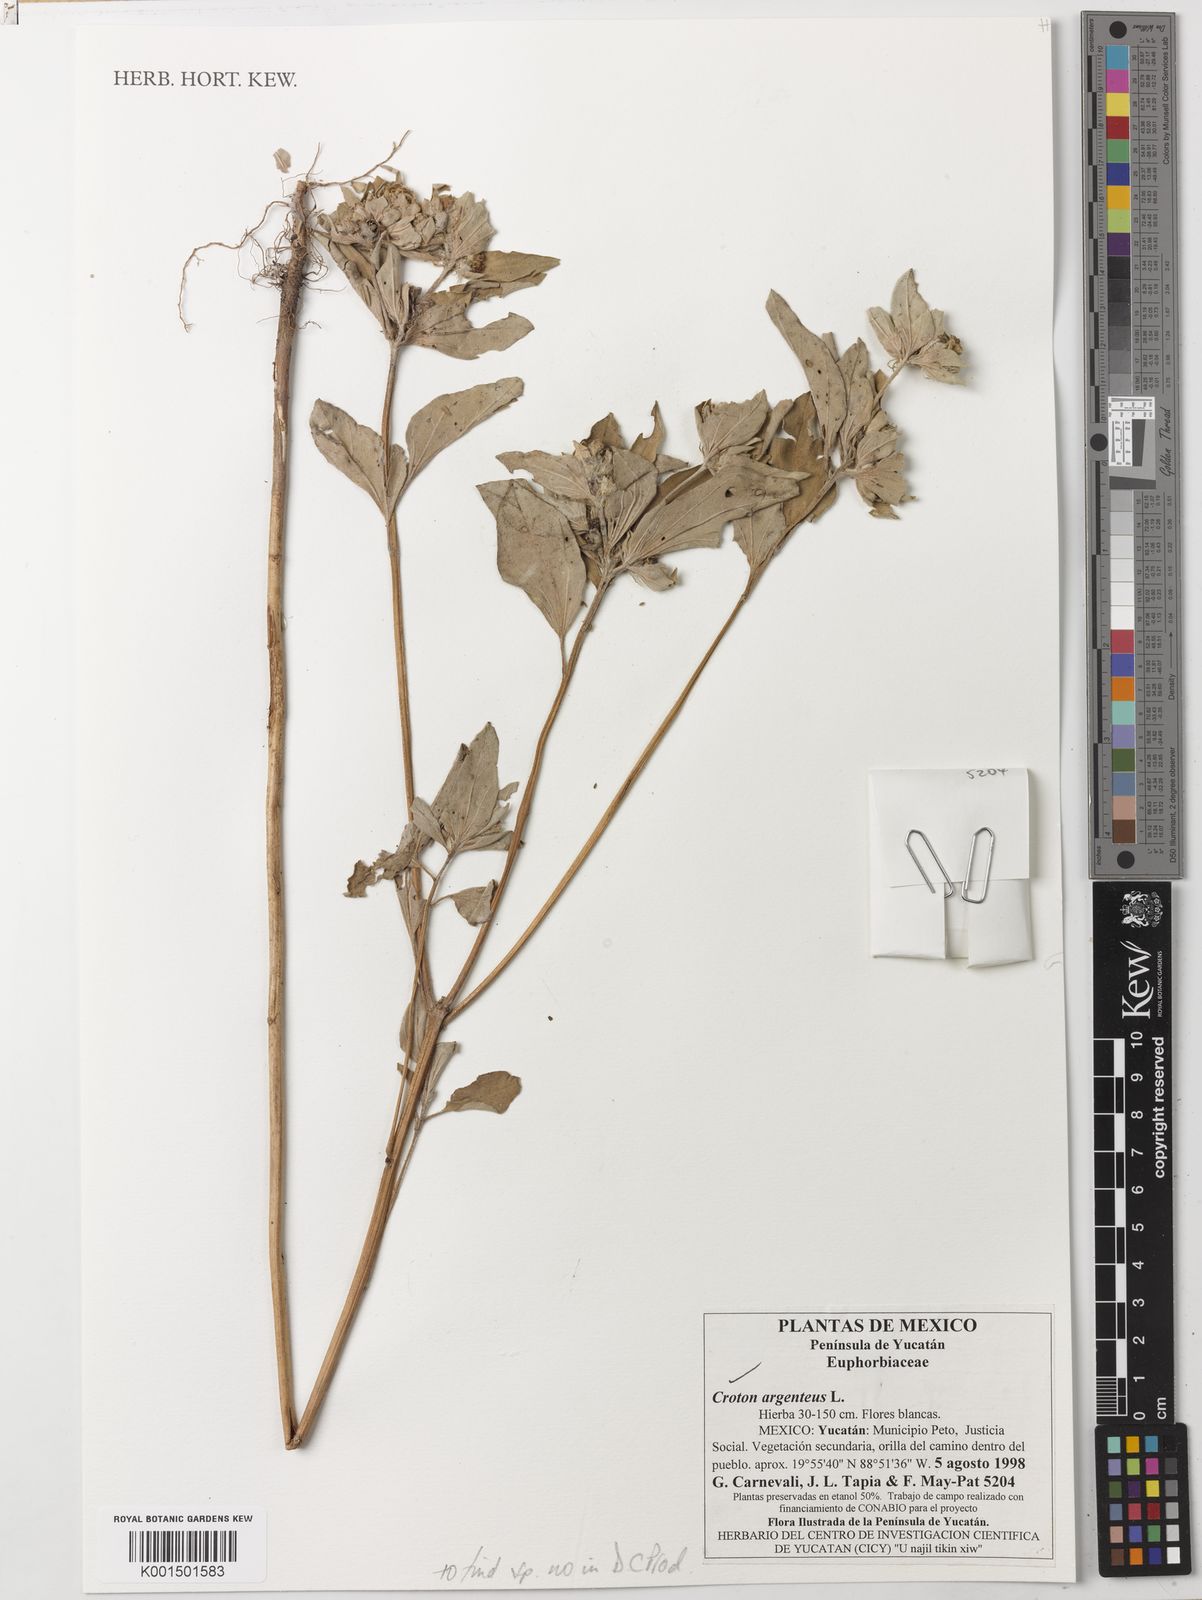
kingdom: Plantae
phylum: Tracheophyta
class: Magnoliopsida
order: Malpighiales
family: Euphorbiaceae
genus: Croton
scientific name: Croton argenteus
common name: Silver july croton
